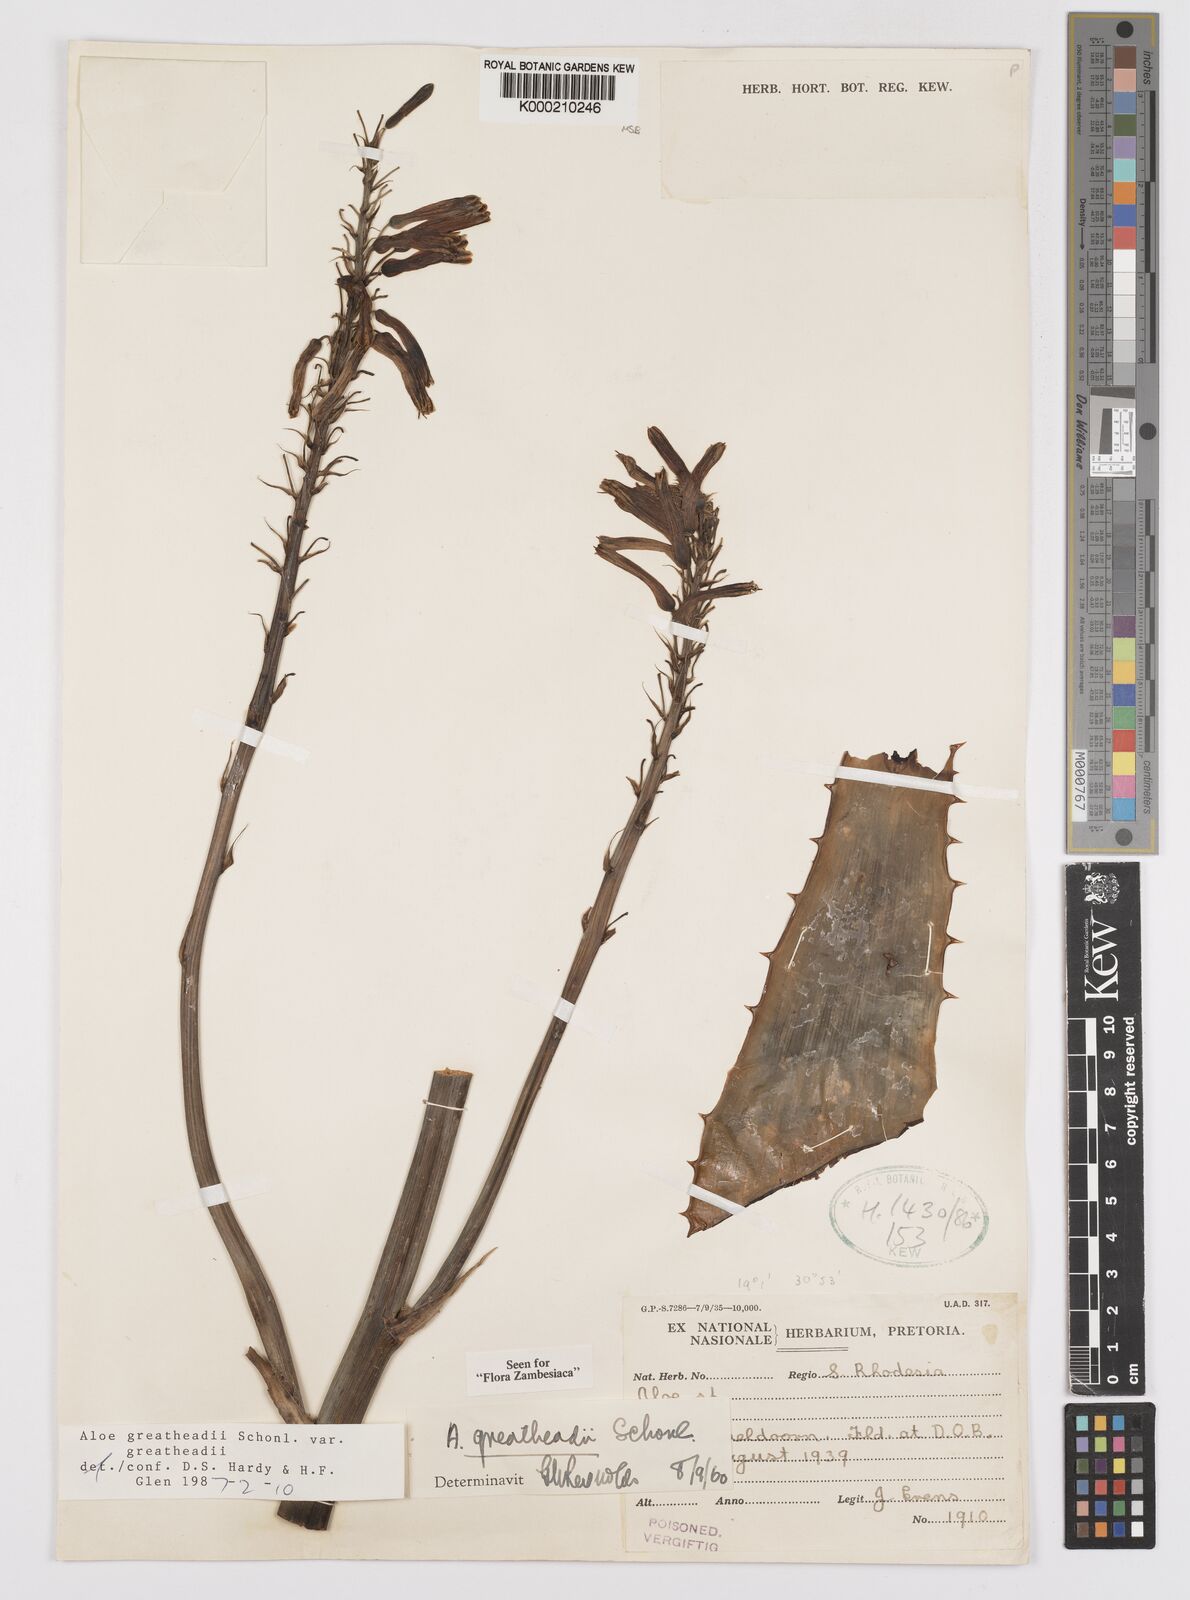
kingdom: Plantae
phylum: Tracheophyta
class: Liliopsida
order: Asparagales
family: Asphodelaceae
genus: Aloe
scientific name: Aloe greatheadii
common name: Greathead's aloe
